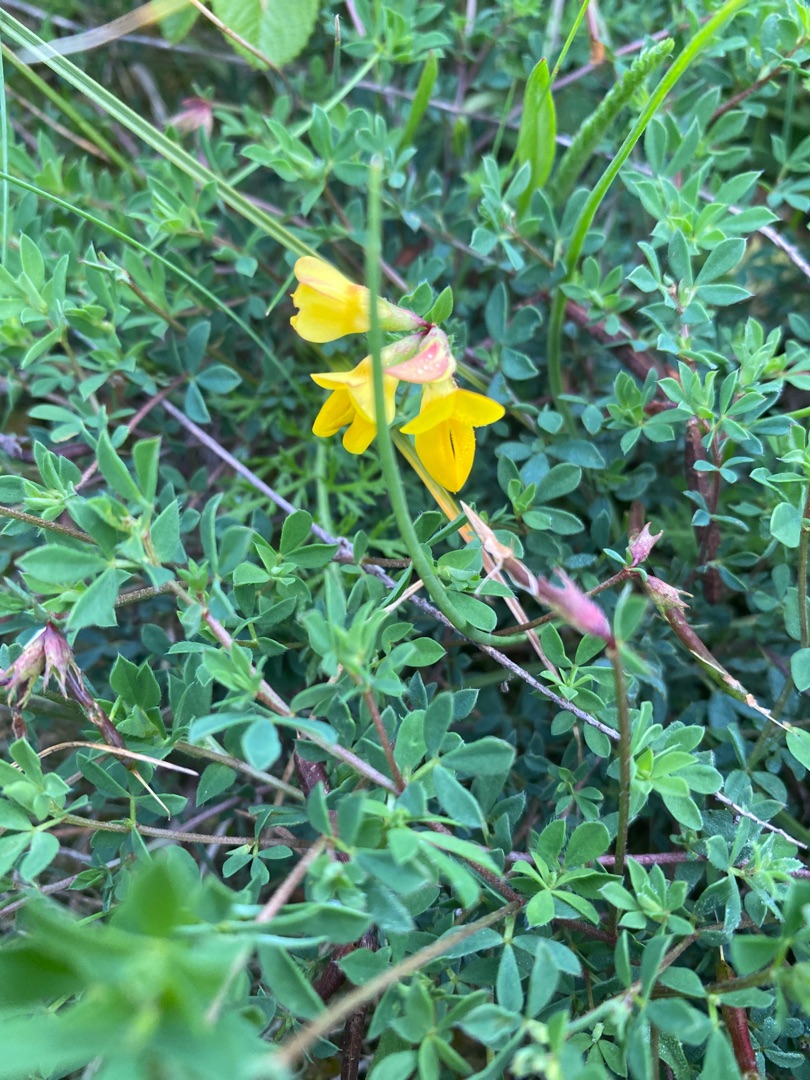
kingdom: Plantae
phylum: Tracheophyta
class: Magnoliopsida
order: Fabales
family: Fabaceae
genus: Lotus
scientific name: Lotus corniculatus
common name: Almindelig kællingetand
